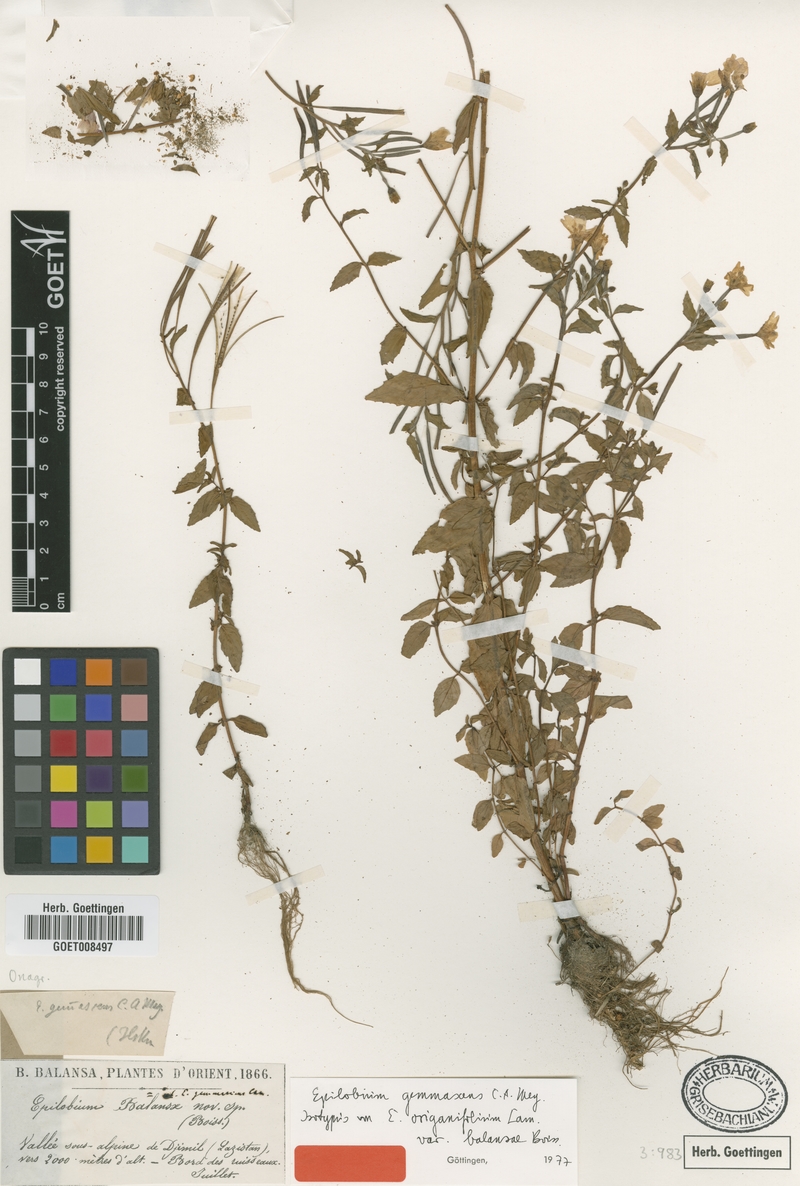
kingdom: Plantae
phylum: Tracheophyta
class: Magnoliopsida
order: Myrtales
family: Onagraceae
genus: Epilobium
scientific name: Epilobium gemmascens
